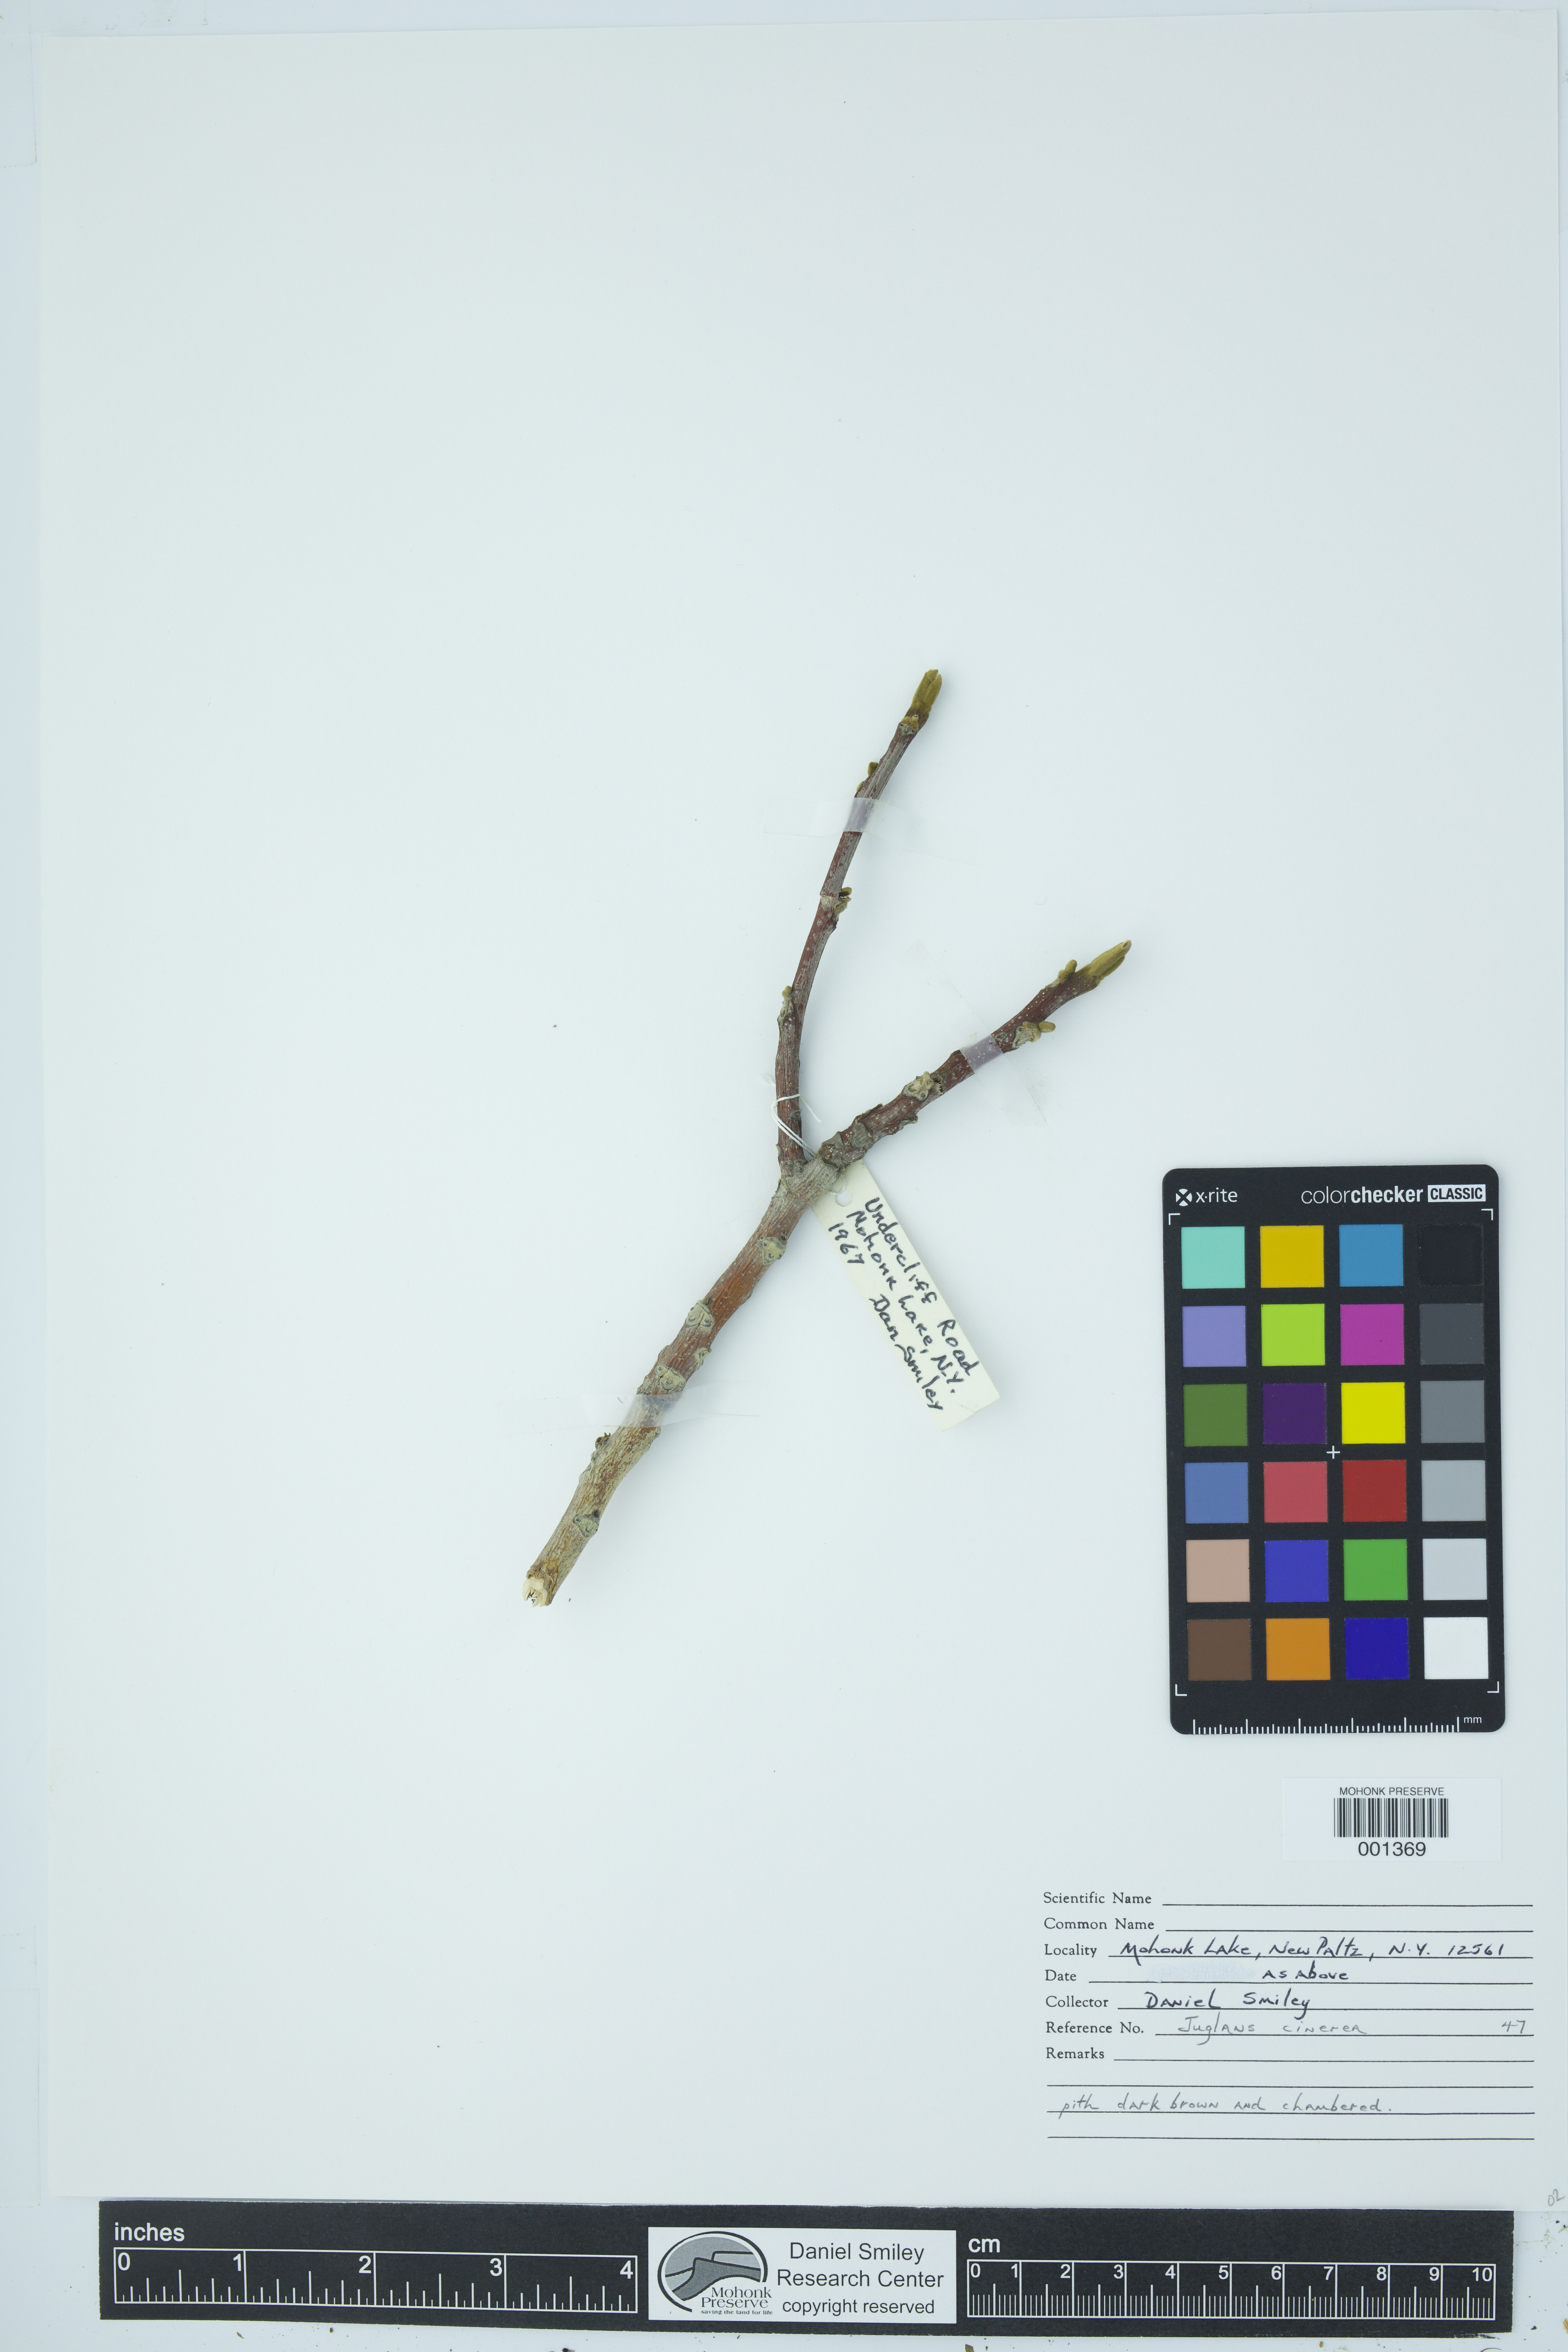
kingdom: Plantae
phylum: Tracheophyta
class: Magnoliopsida
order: Fagales
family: Juglandaceae
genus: Juglans
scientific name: Juglans cinerea
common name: Butternut
